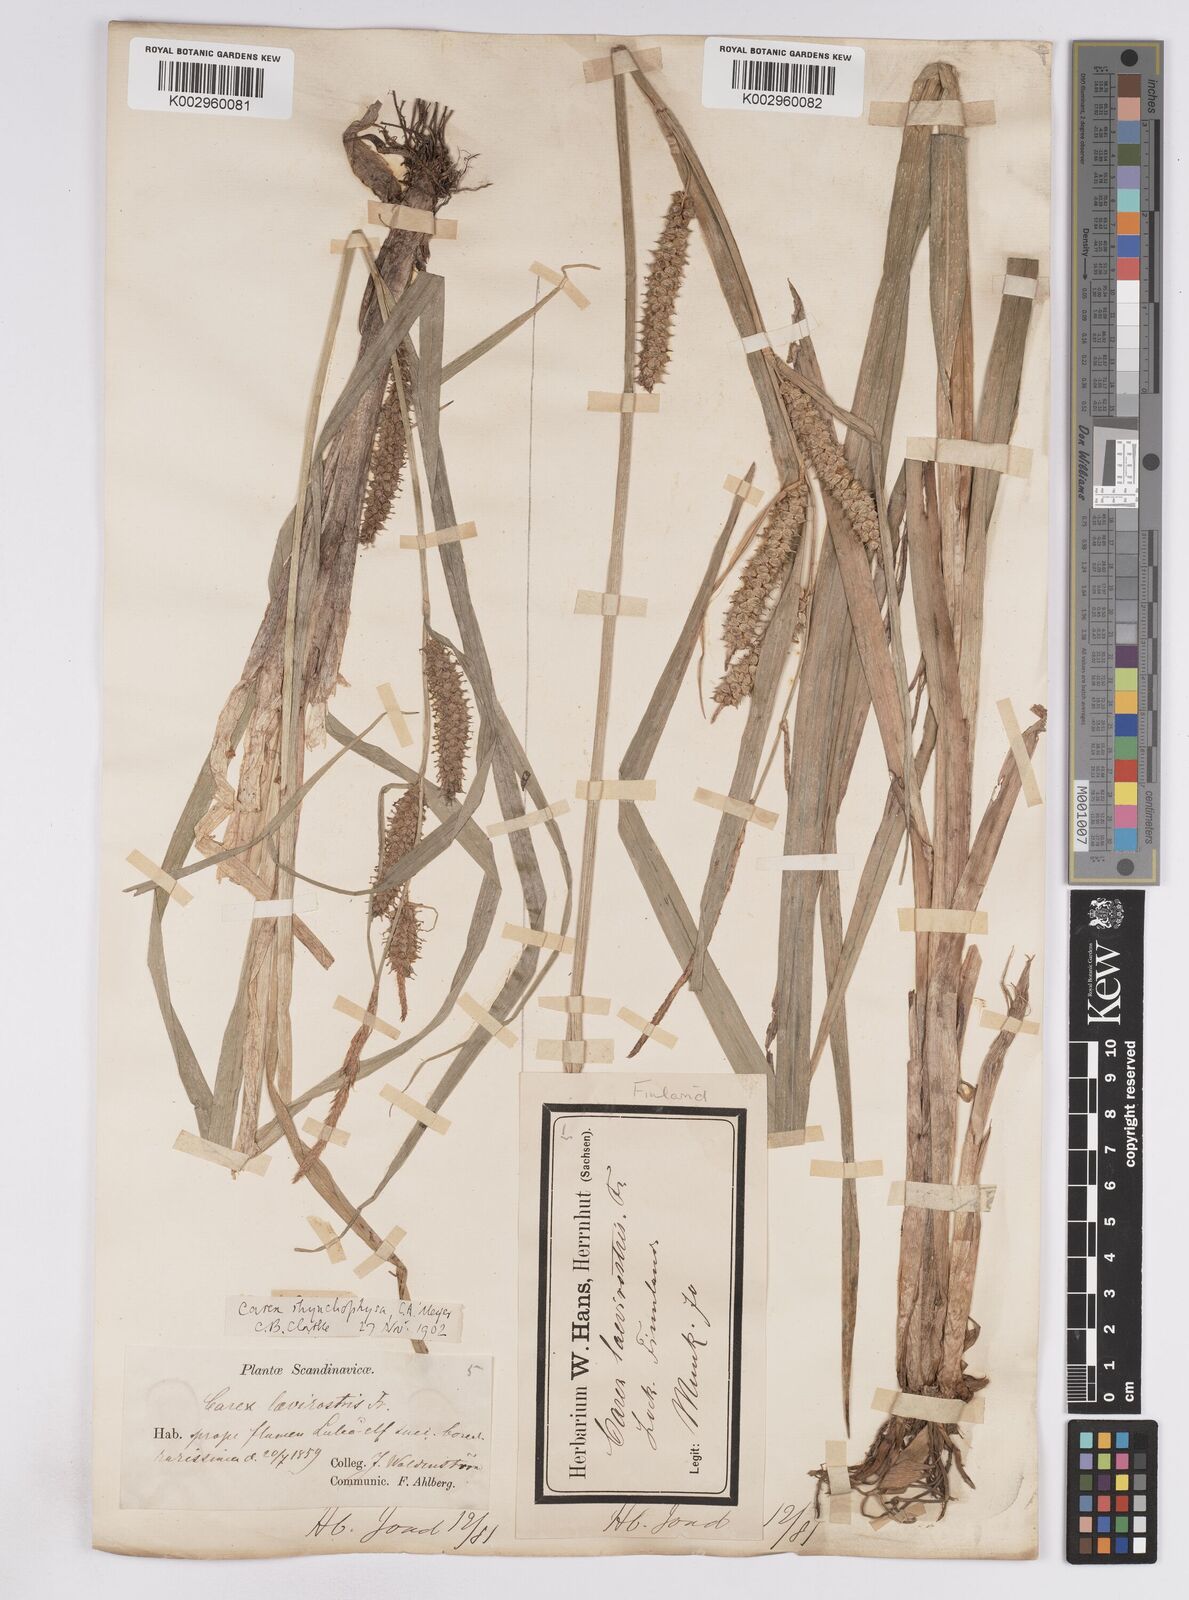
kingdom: Plantae
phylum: Tracheophyta
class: Liliopsida
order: Poales
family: Cyperaceae
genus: Carex
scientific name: Carex utriculata
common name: Beaked sedge
